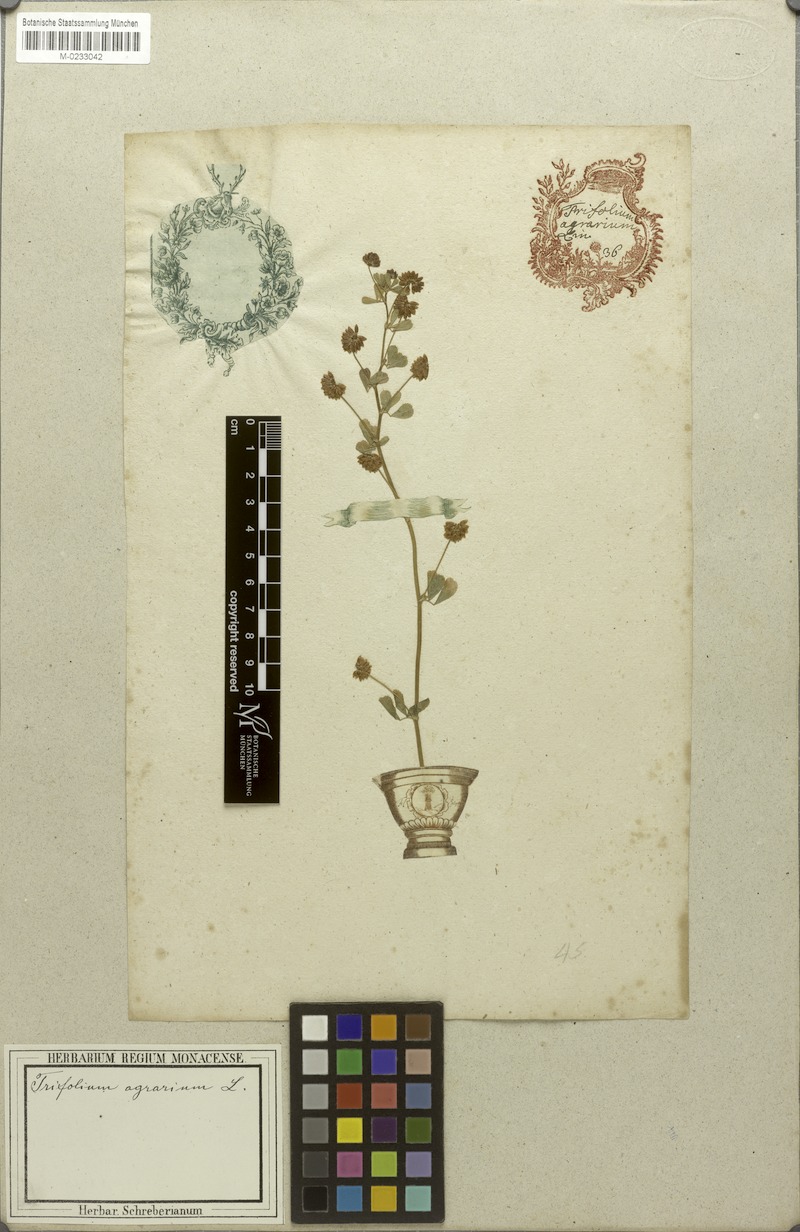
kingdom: Plantae
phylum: Tracheophyta
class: Magnoliopsida
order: Fabales
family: Fabaceae
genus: Trifolium
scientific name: Trifolium campestre
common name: Field clover
